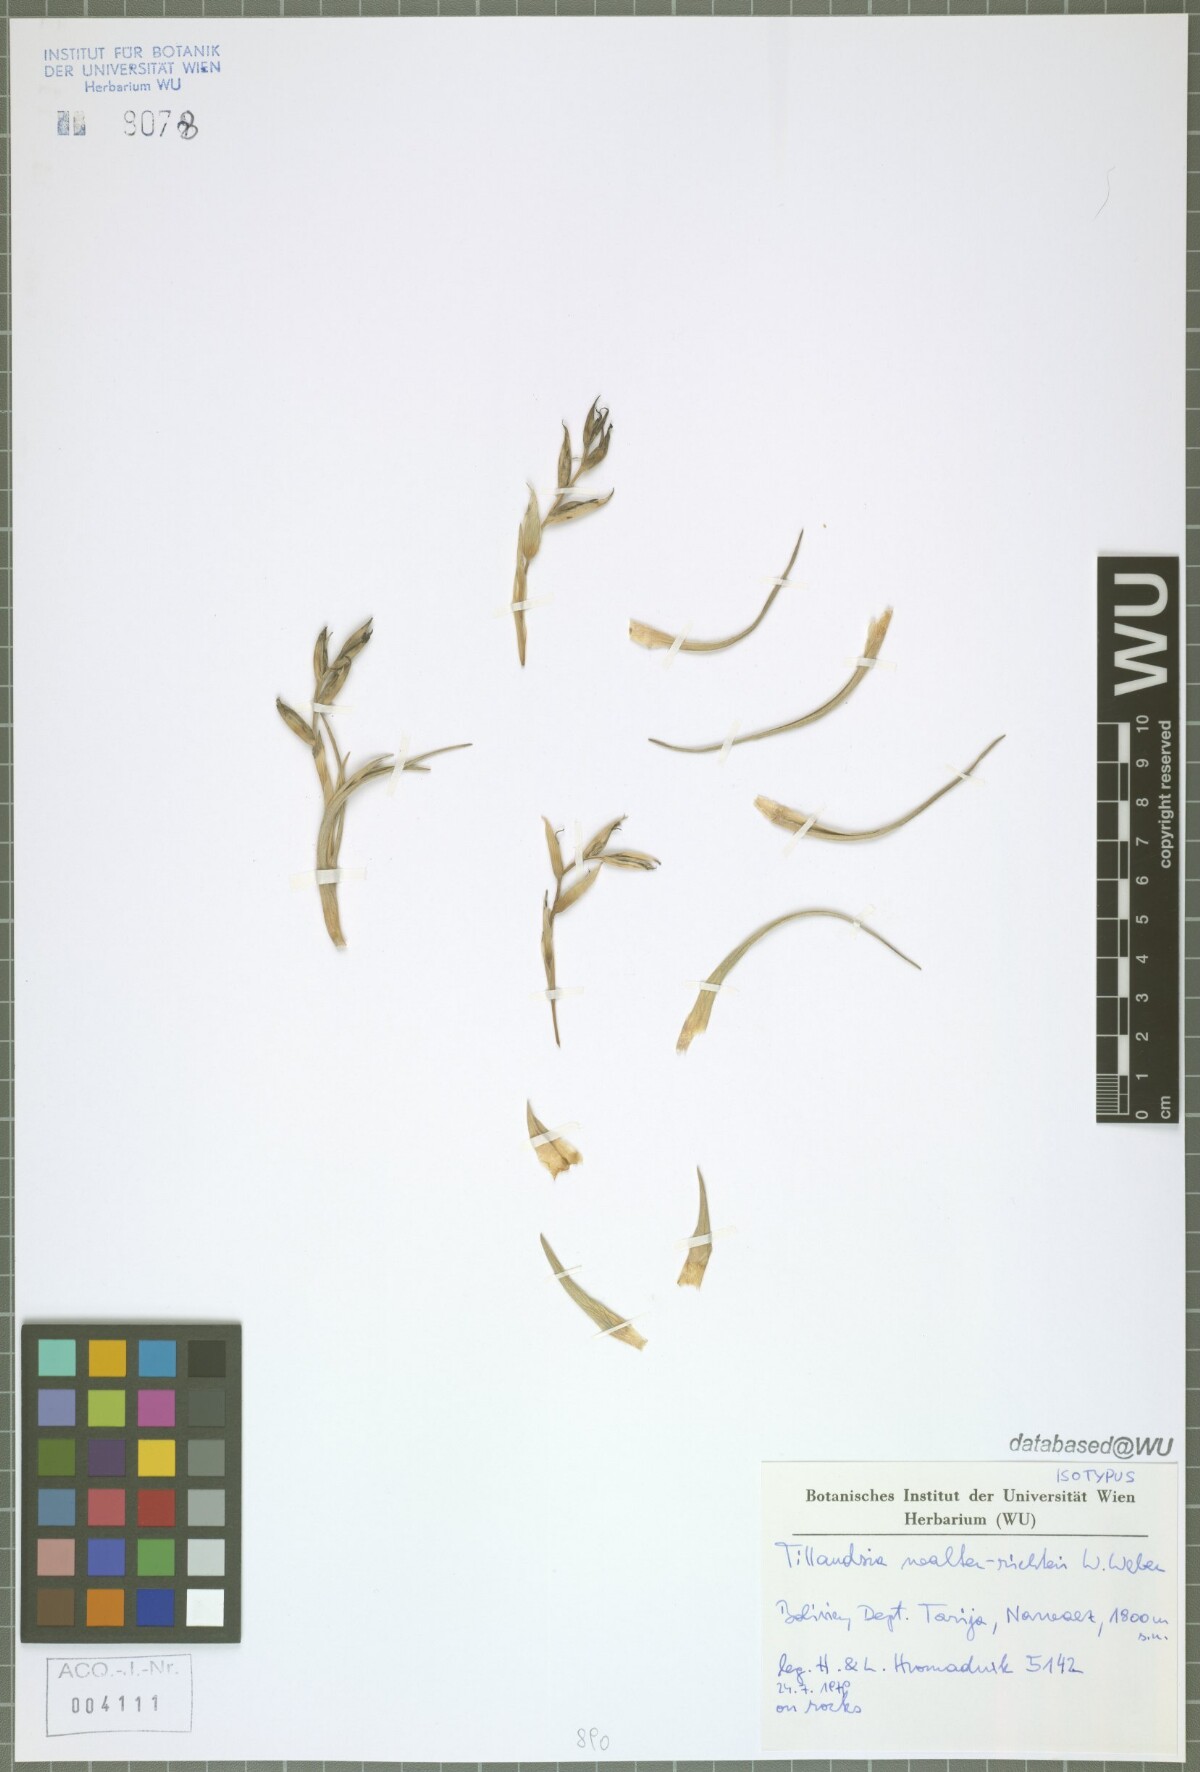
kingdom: Plantae
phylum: Tracheophyta
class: Liliopsida
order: Poales
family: Bromeliaceae
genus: Tillandsia
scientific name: Tillandsia walter-richteri
